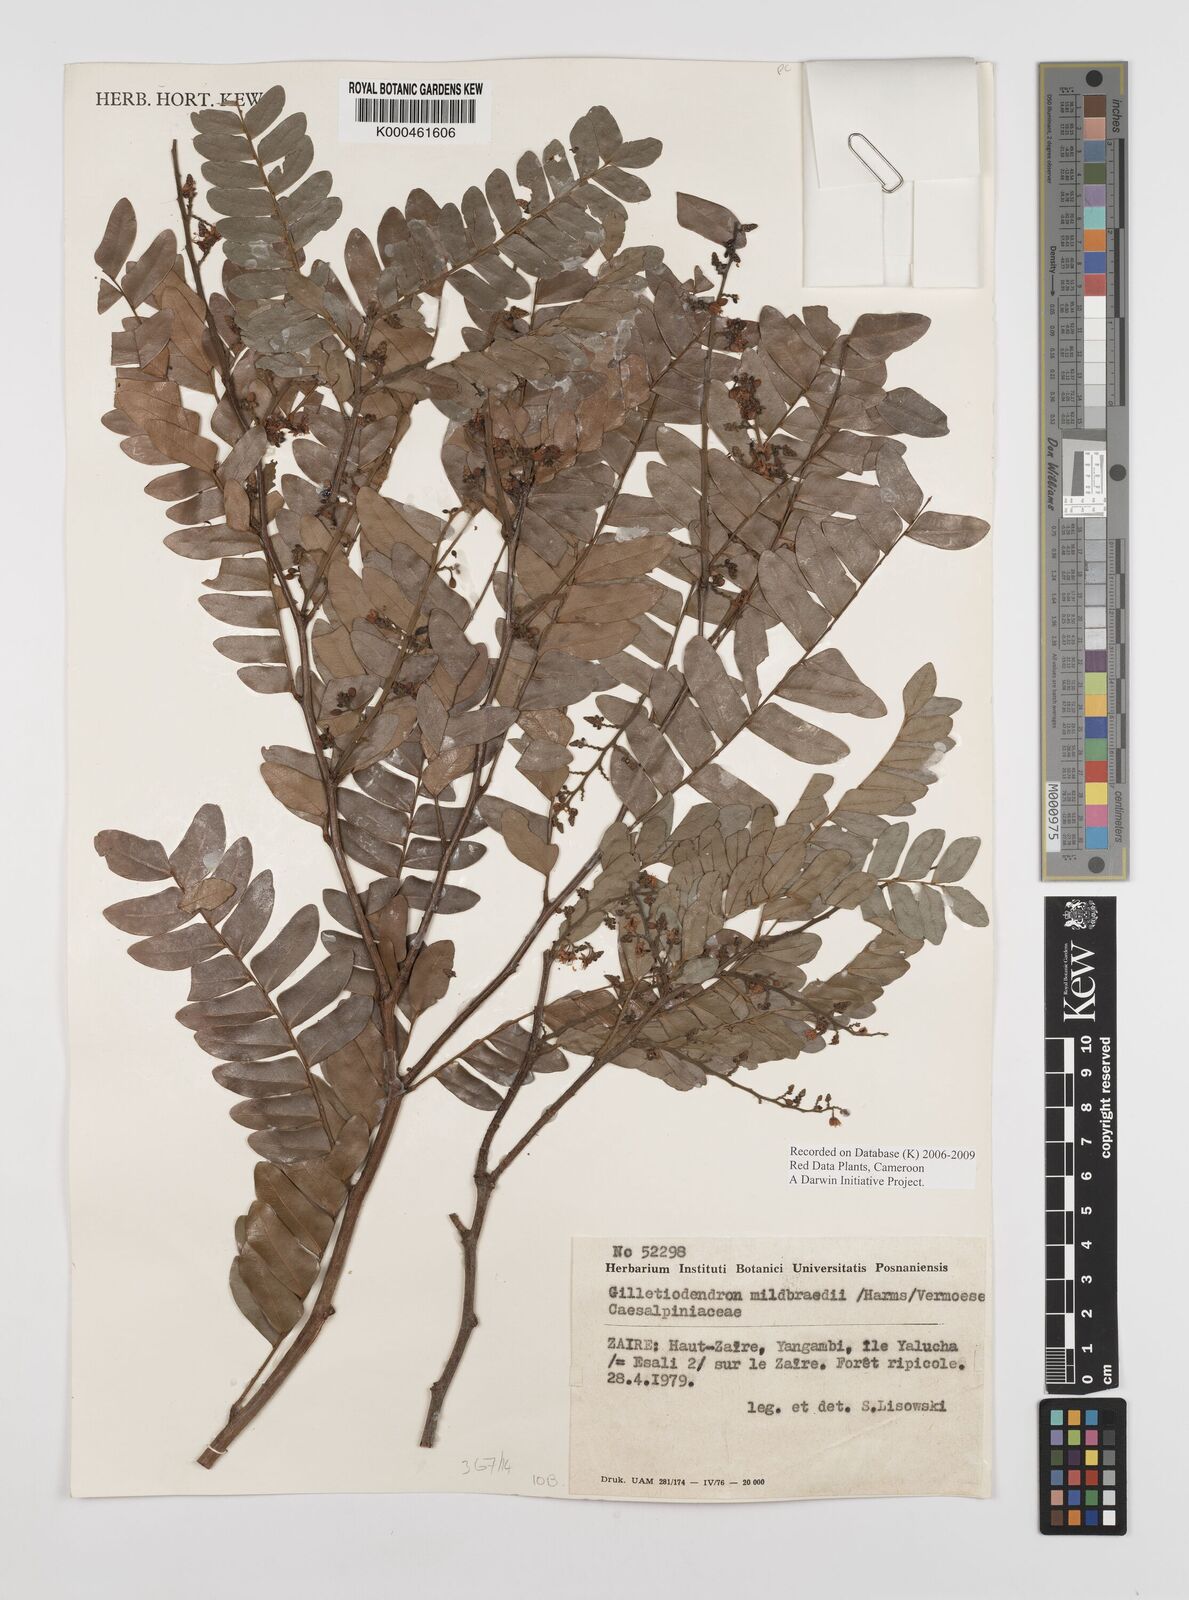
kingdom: Plantae
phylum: Tracheophyta
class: Magnoliopsida
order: Fabales
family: Fabaceae
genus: Gilletiodendron
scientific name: Gilletiodendron mildbraedii
